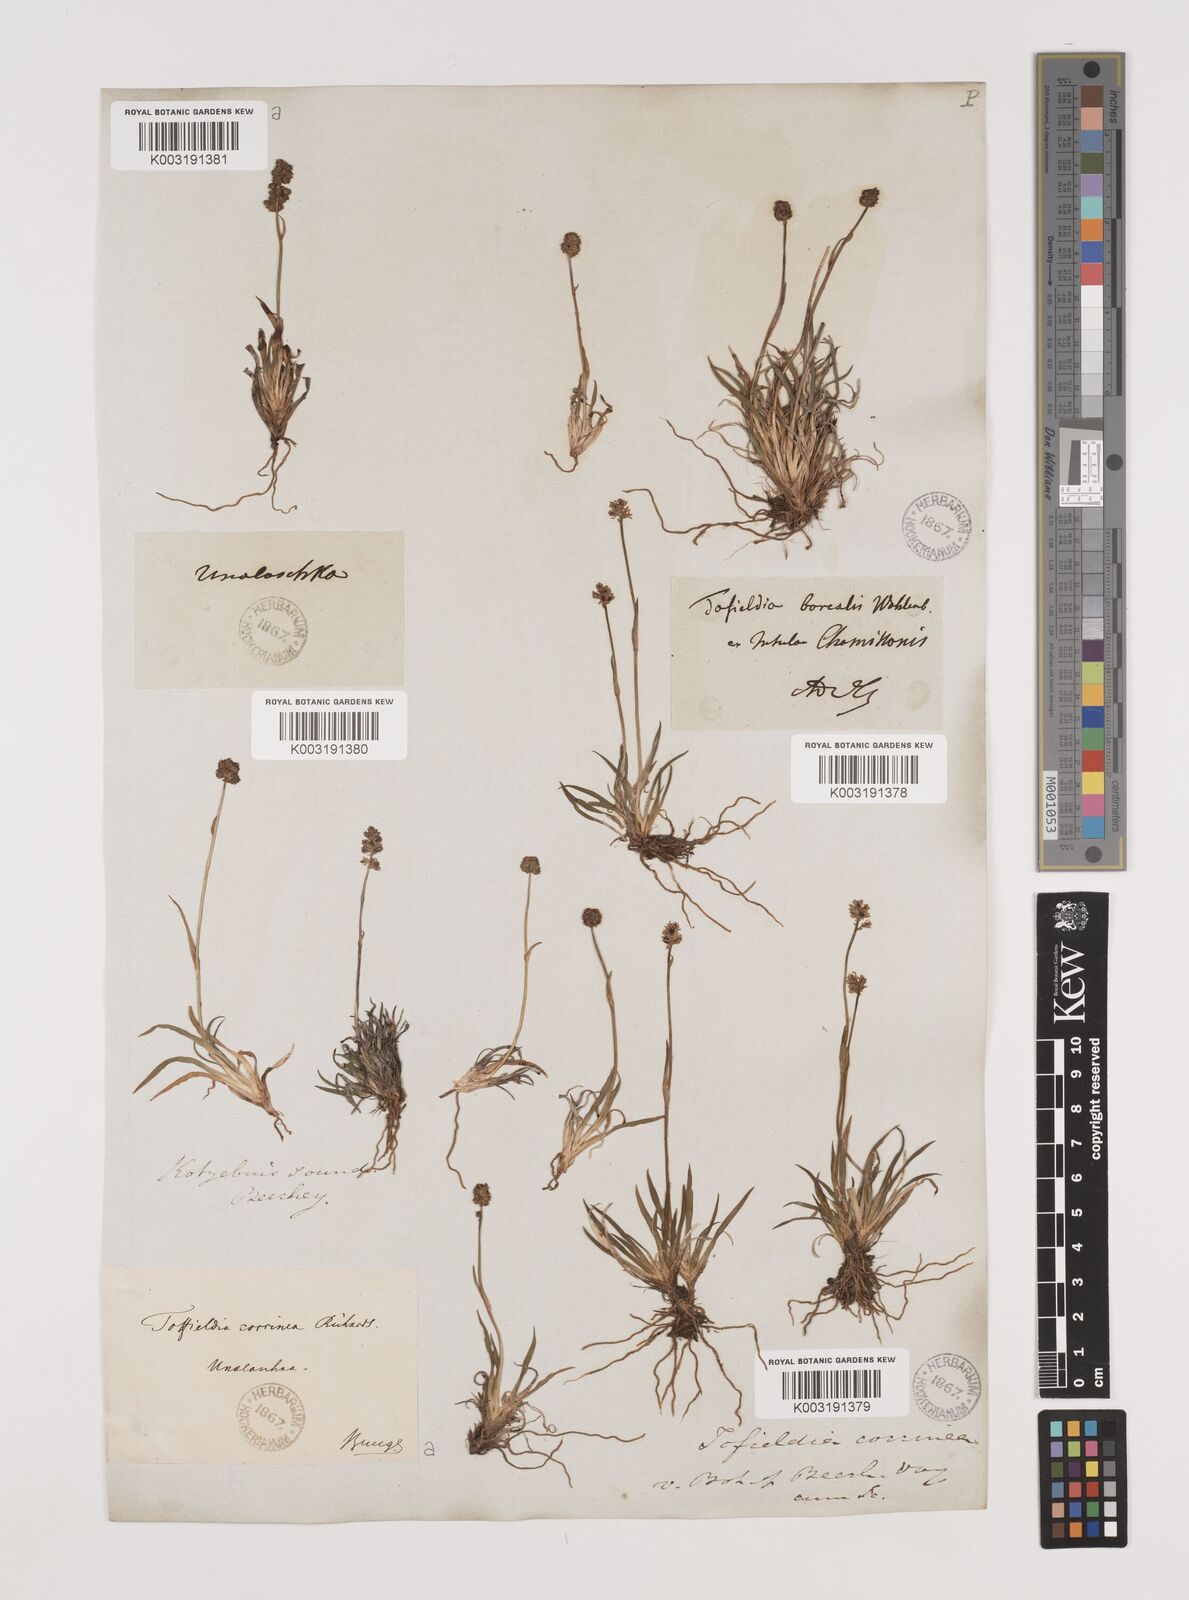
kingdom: Plantae
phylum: Tracheophyta
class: Liliopsida
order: Alismatales
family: Tofieldiaceae
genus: Tofieldia
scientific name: Tofieldia coccinea
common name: Northern false asphodel
